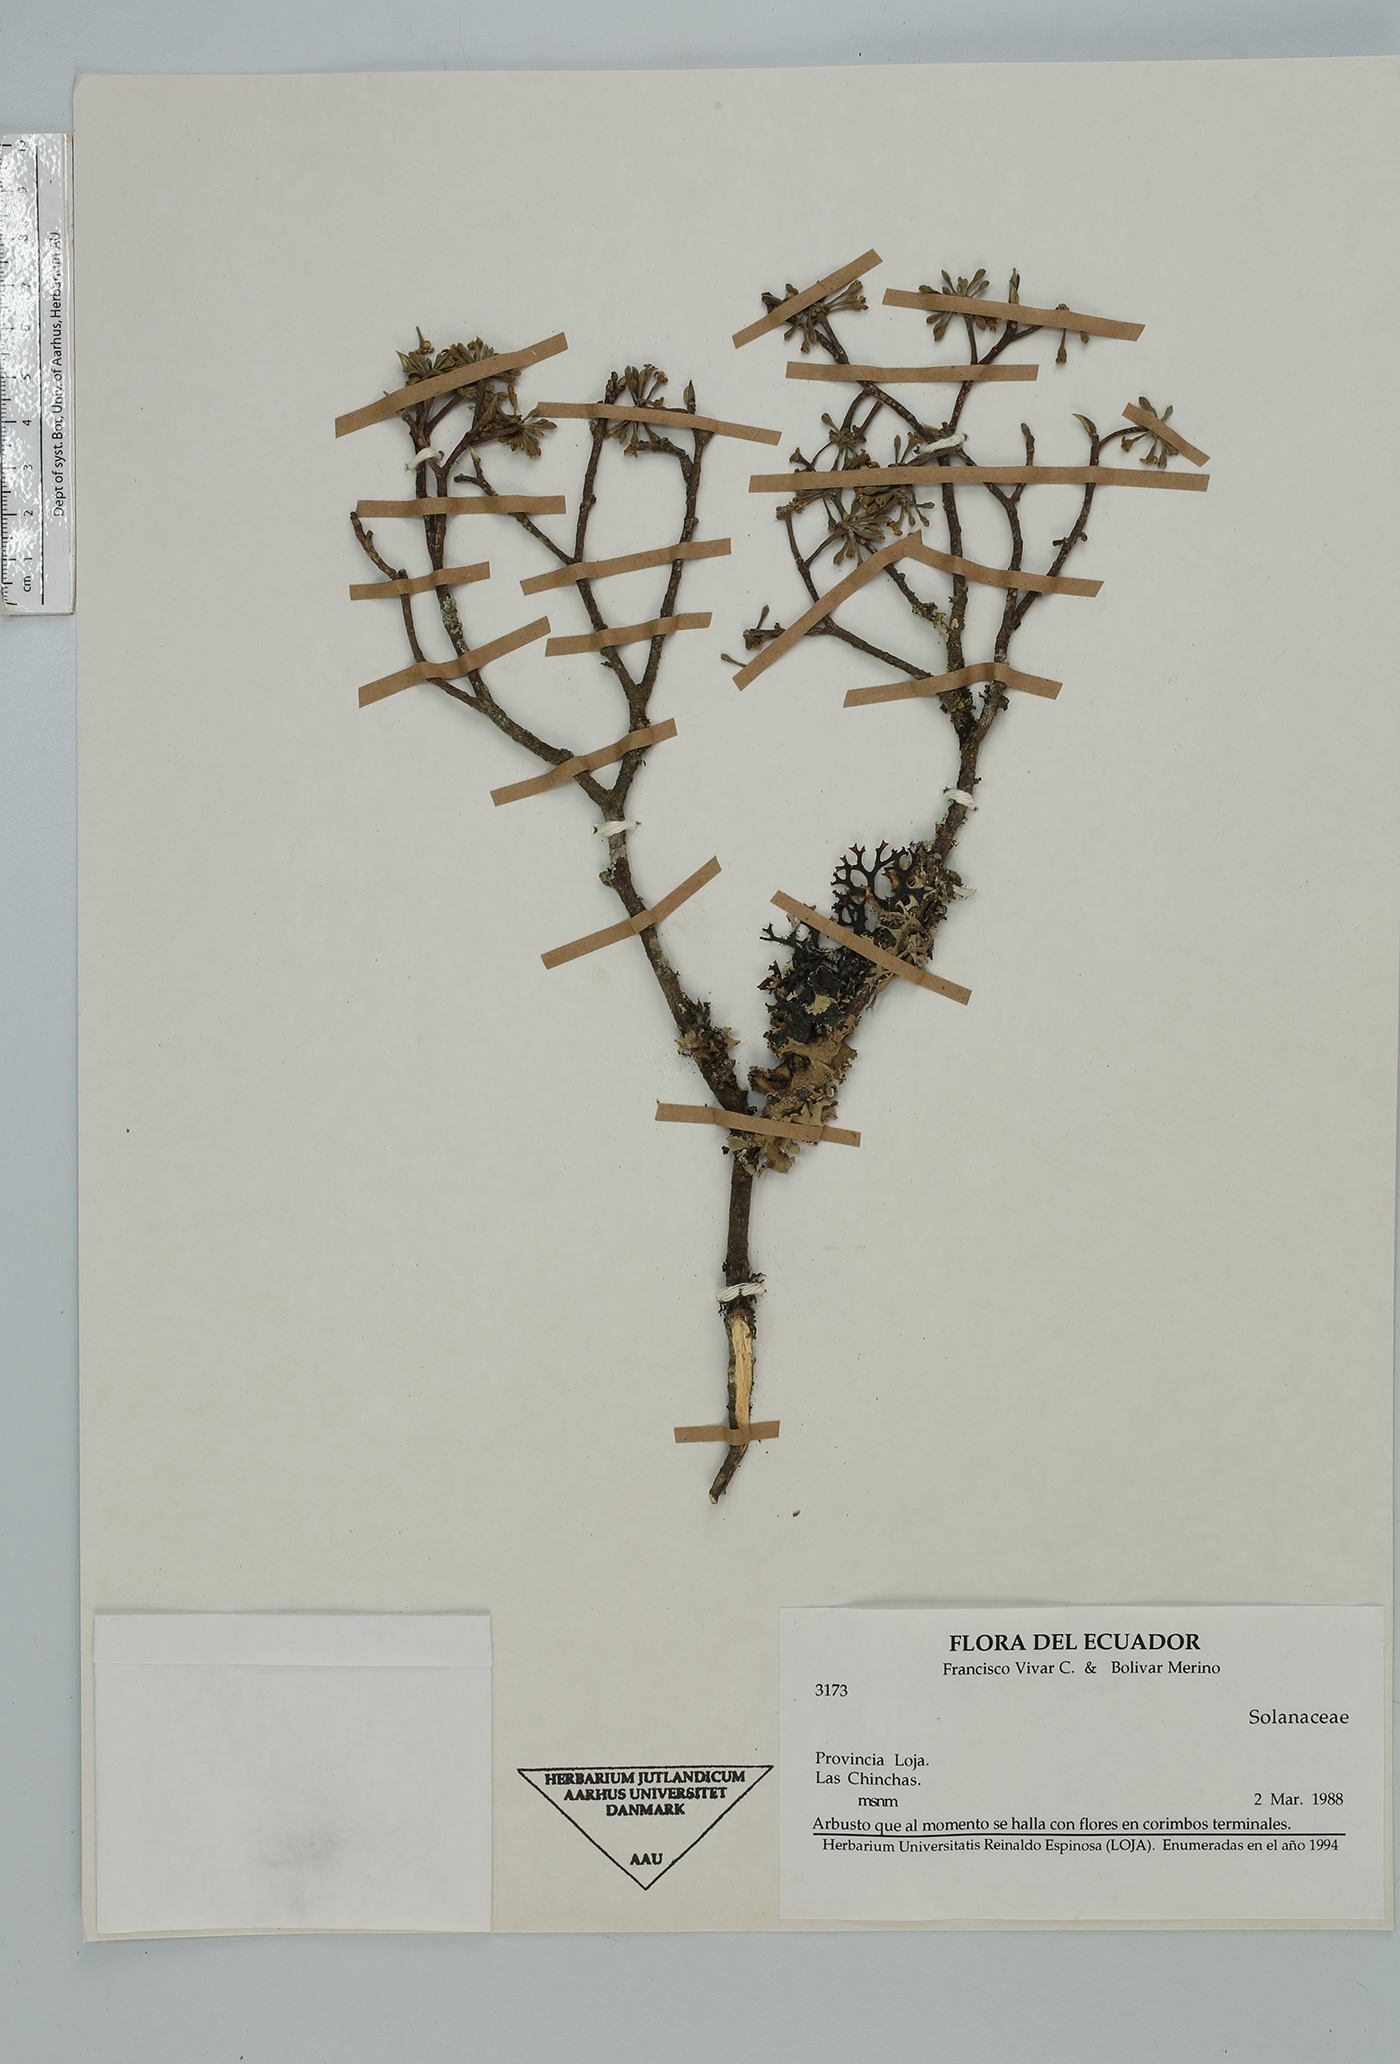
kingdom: Plantae
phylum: Tracheophyta
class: Magnoliopsida
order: Malvales
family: Thymelaeaceae
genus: Daphnopsis
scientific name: Daphnopsis
